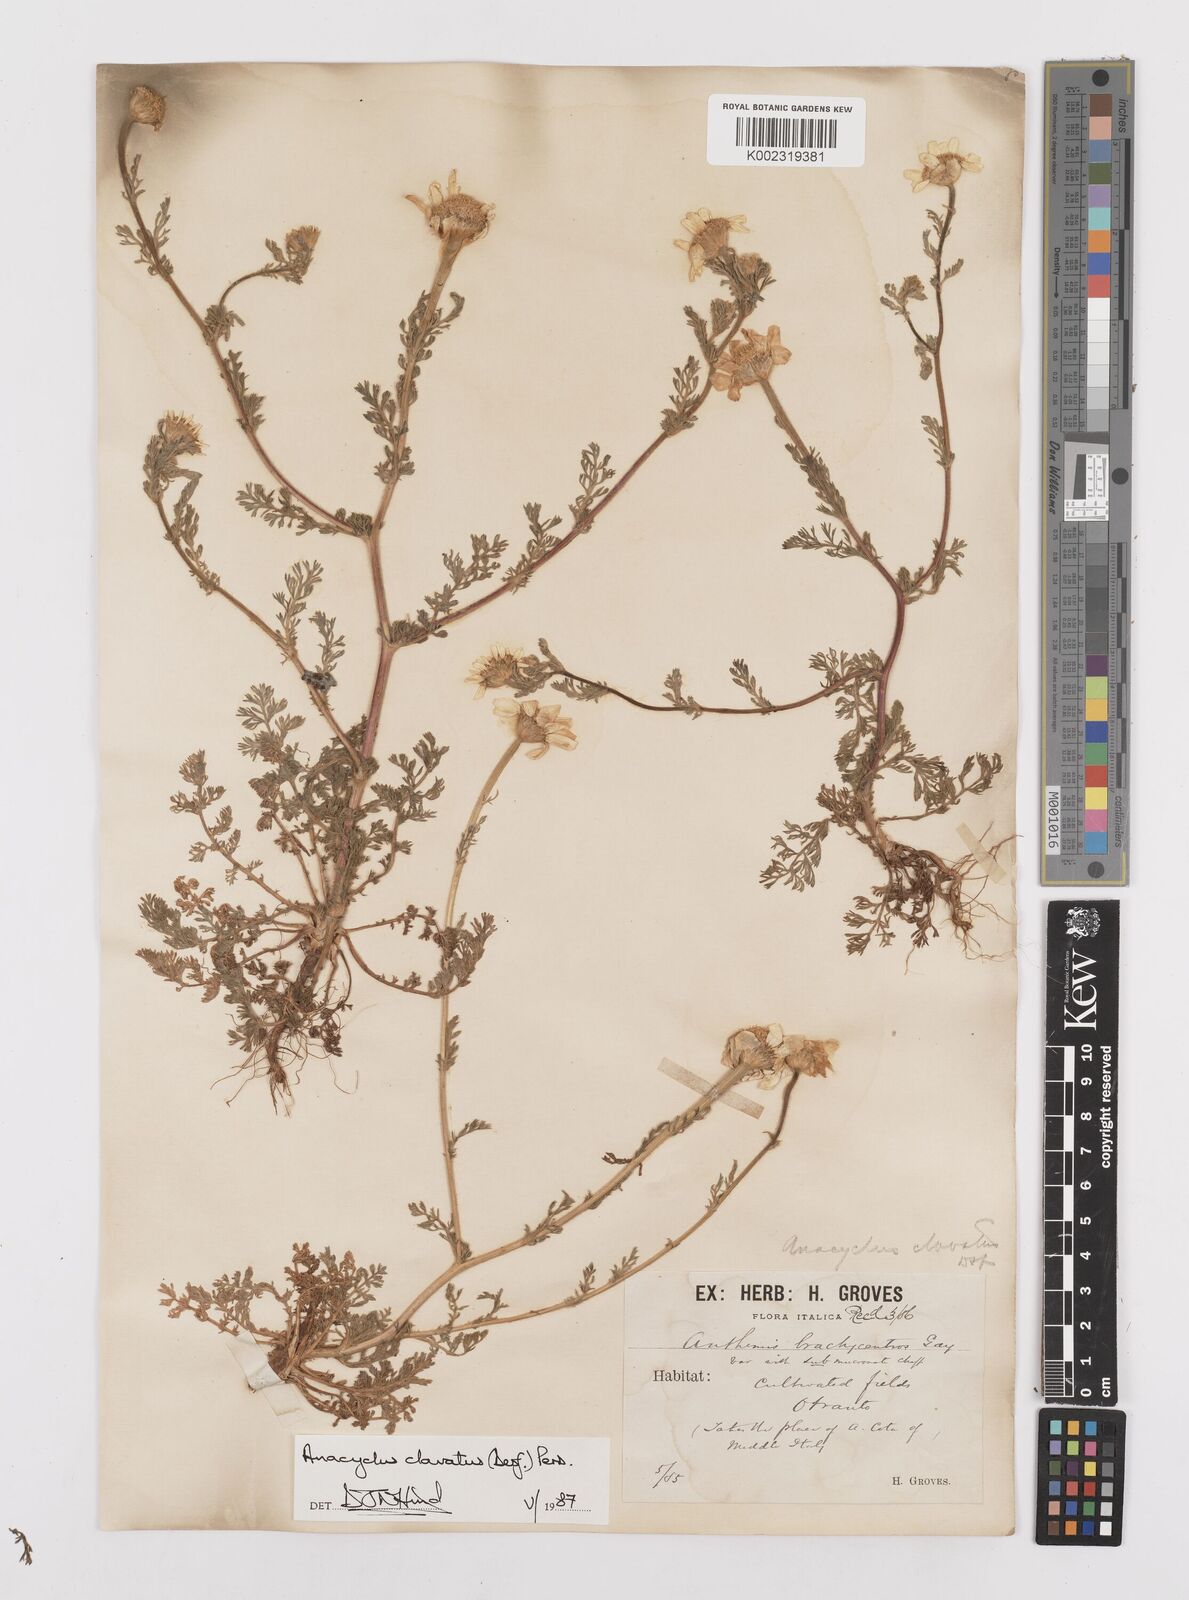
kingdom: Plantae
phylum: Tracheophyta
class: Magnoliopsida
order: Asterales
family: Asteraceae
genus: Anacyclus
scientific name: Anacyclus clavatus
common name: Whitebuttons
